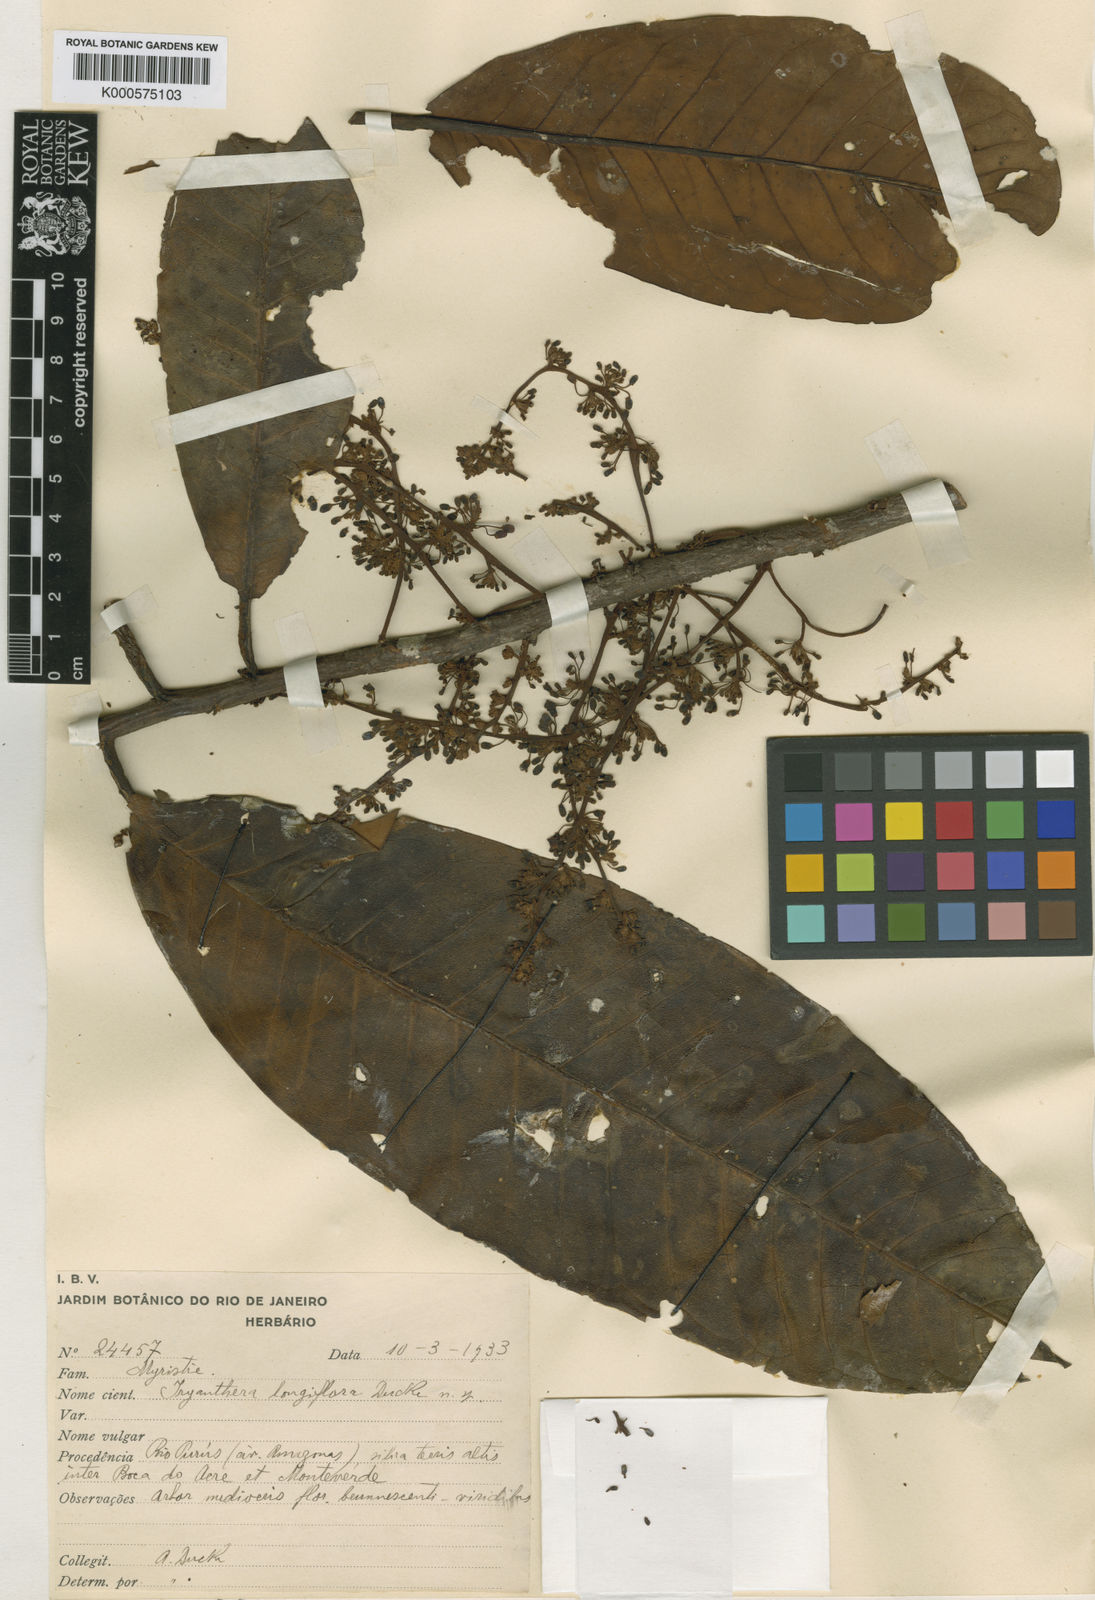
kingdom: Plantae
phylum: Tracheophyta
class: Magnoliopsida
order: Magnoliales
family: Myristicaceae
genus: Iryanthera
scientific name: Iryanthera paradoxa
